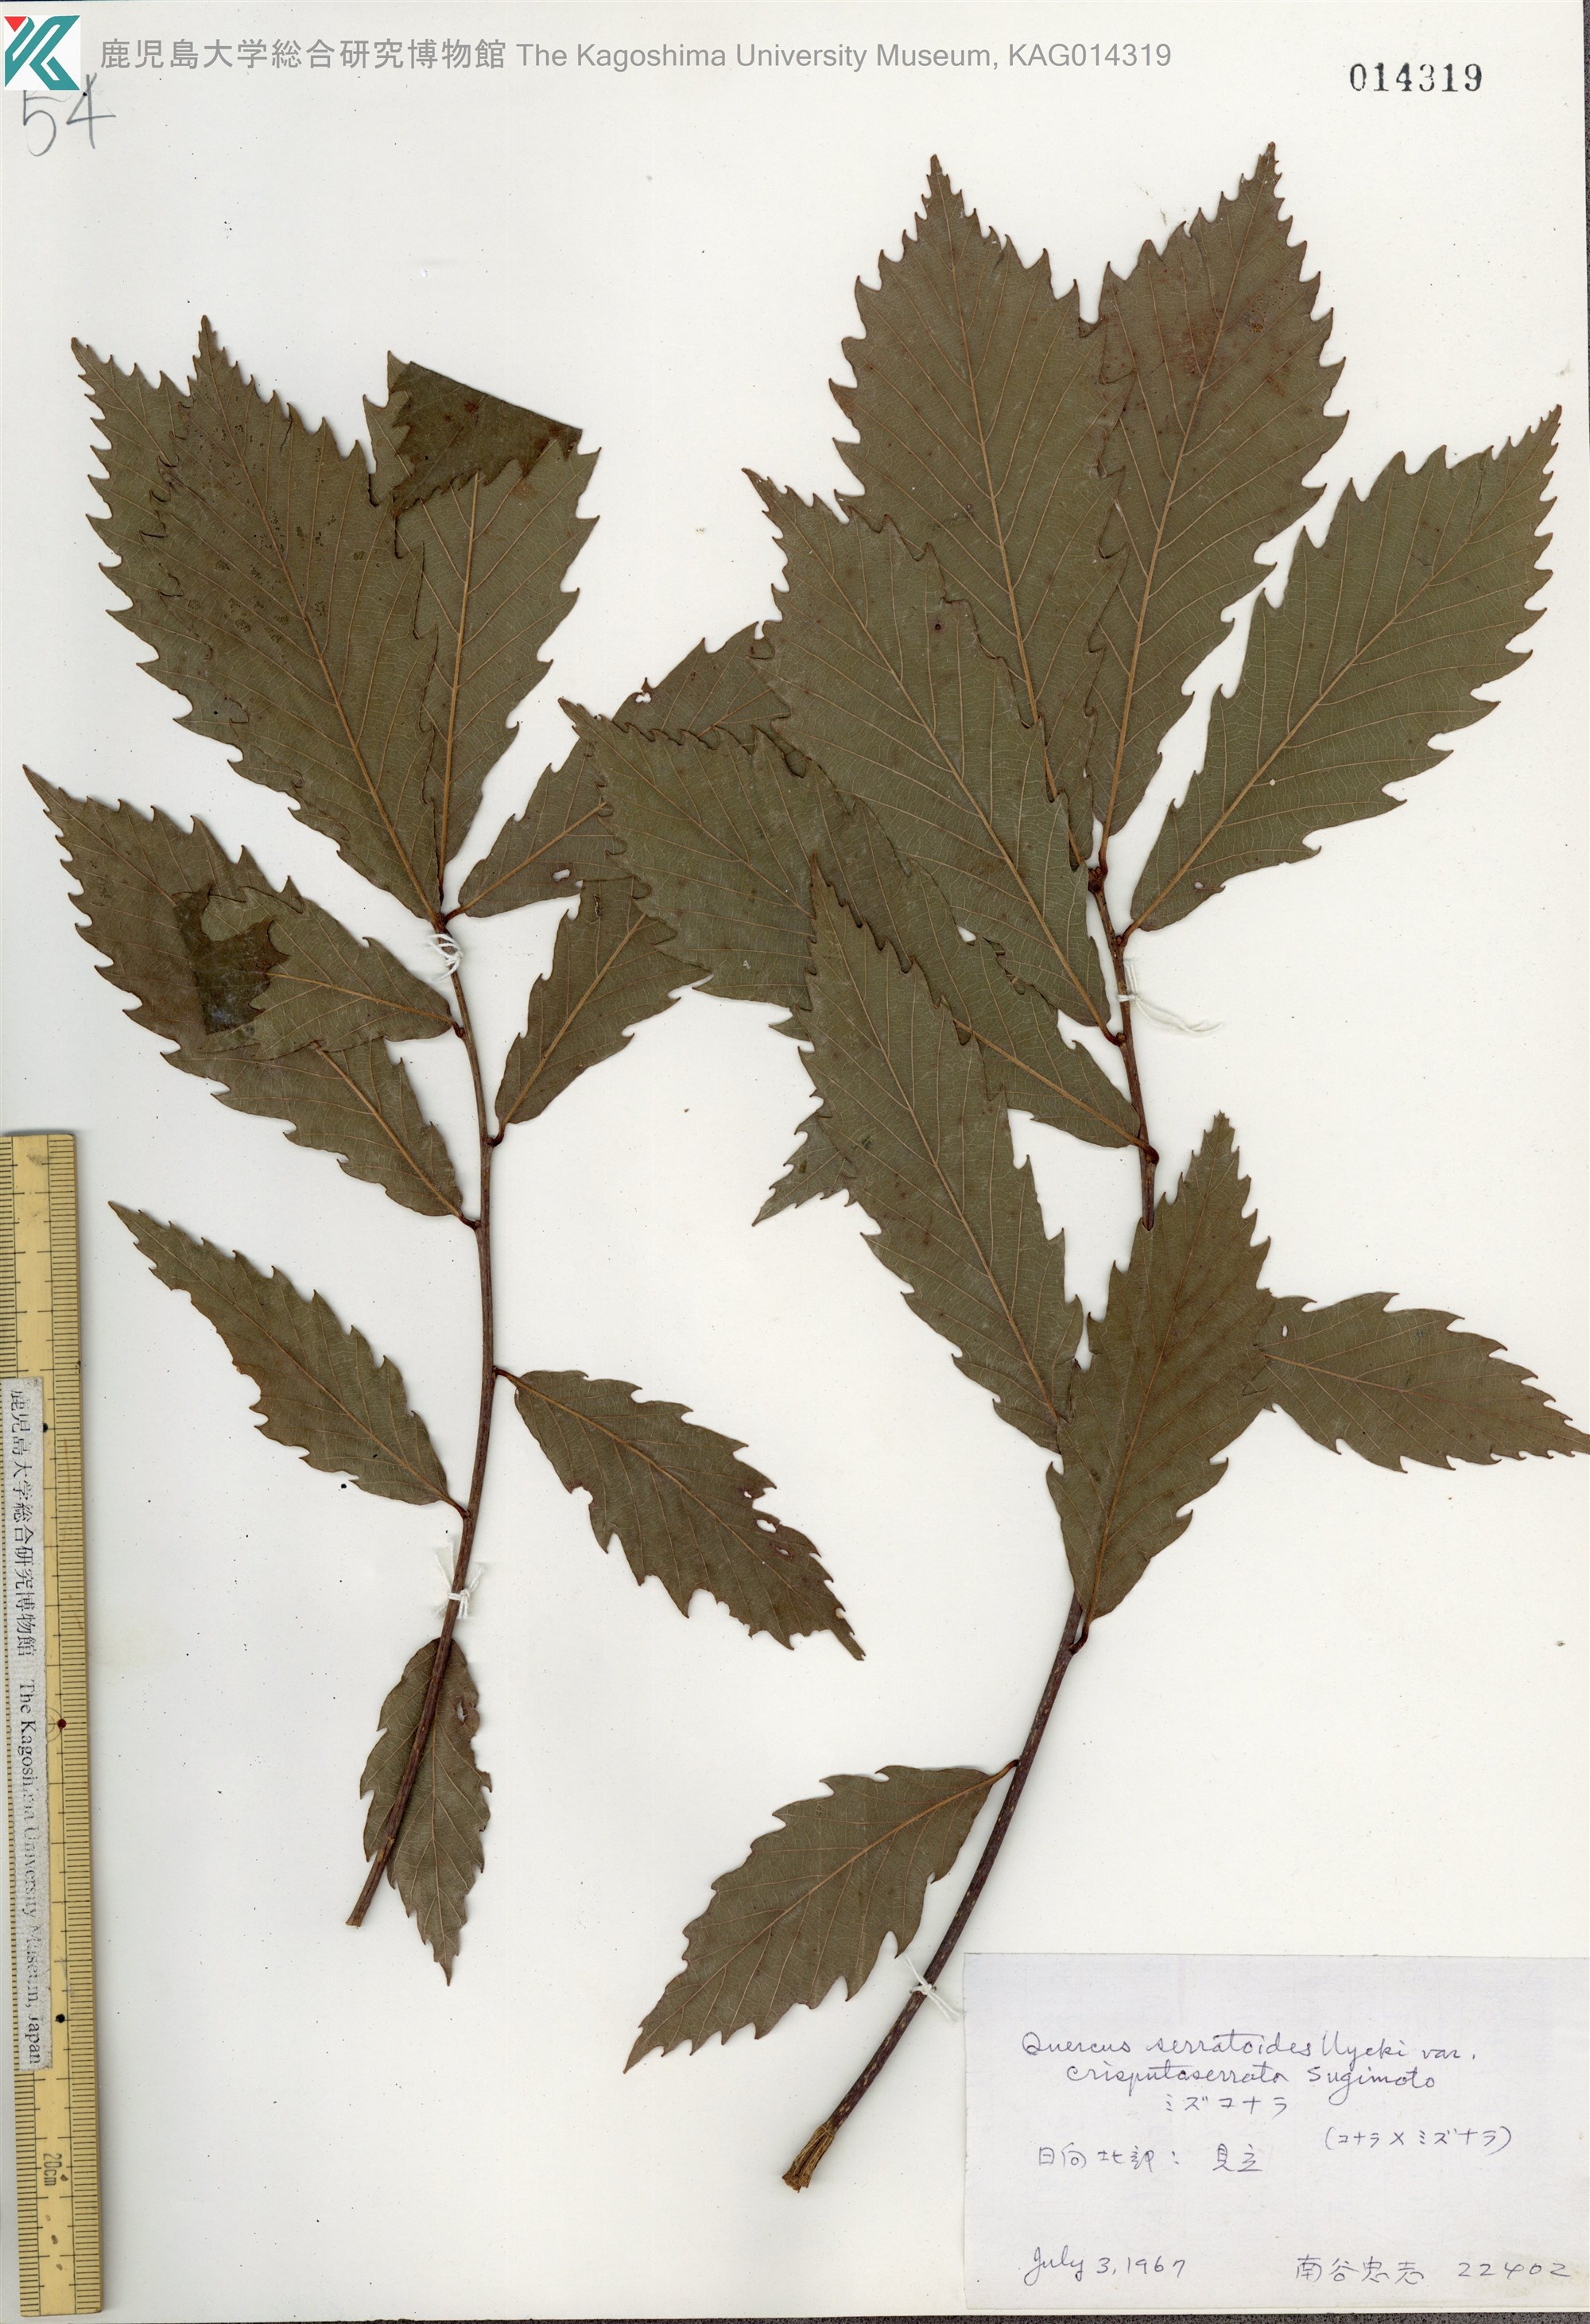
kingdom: Plantae
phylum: Tracheophyta
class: Magnoliopsida
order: Fagales
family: Fagaceae
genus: Quercus
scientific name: Quercus serrata
